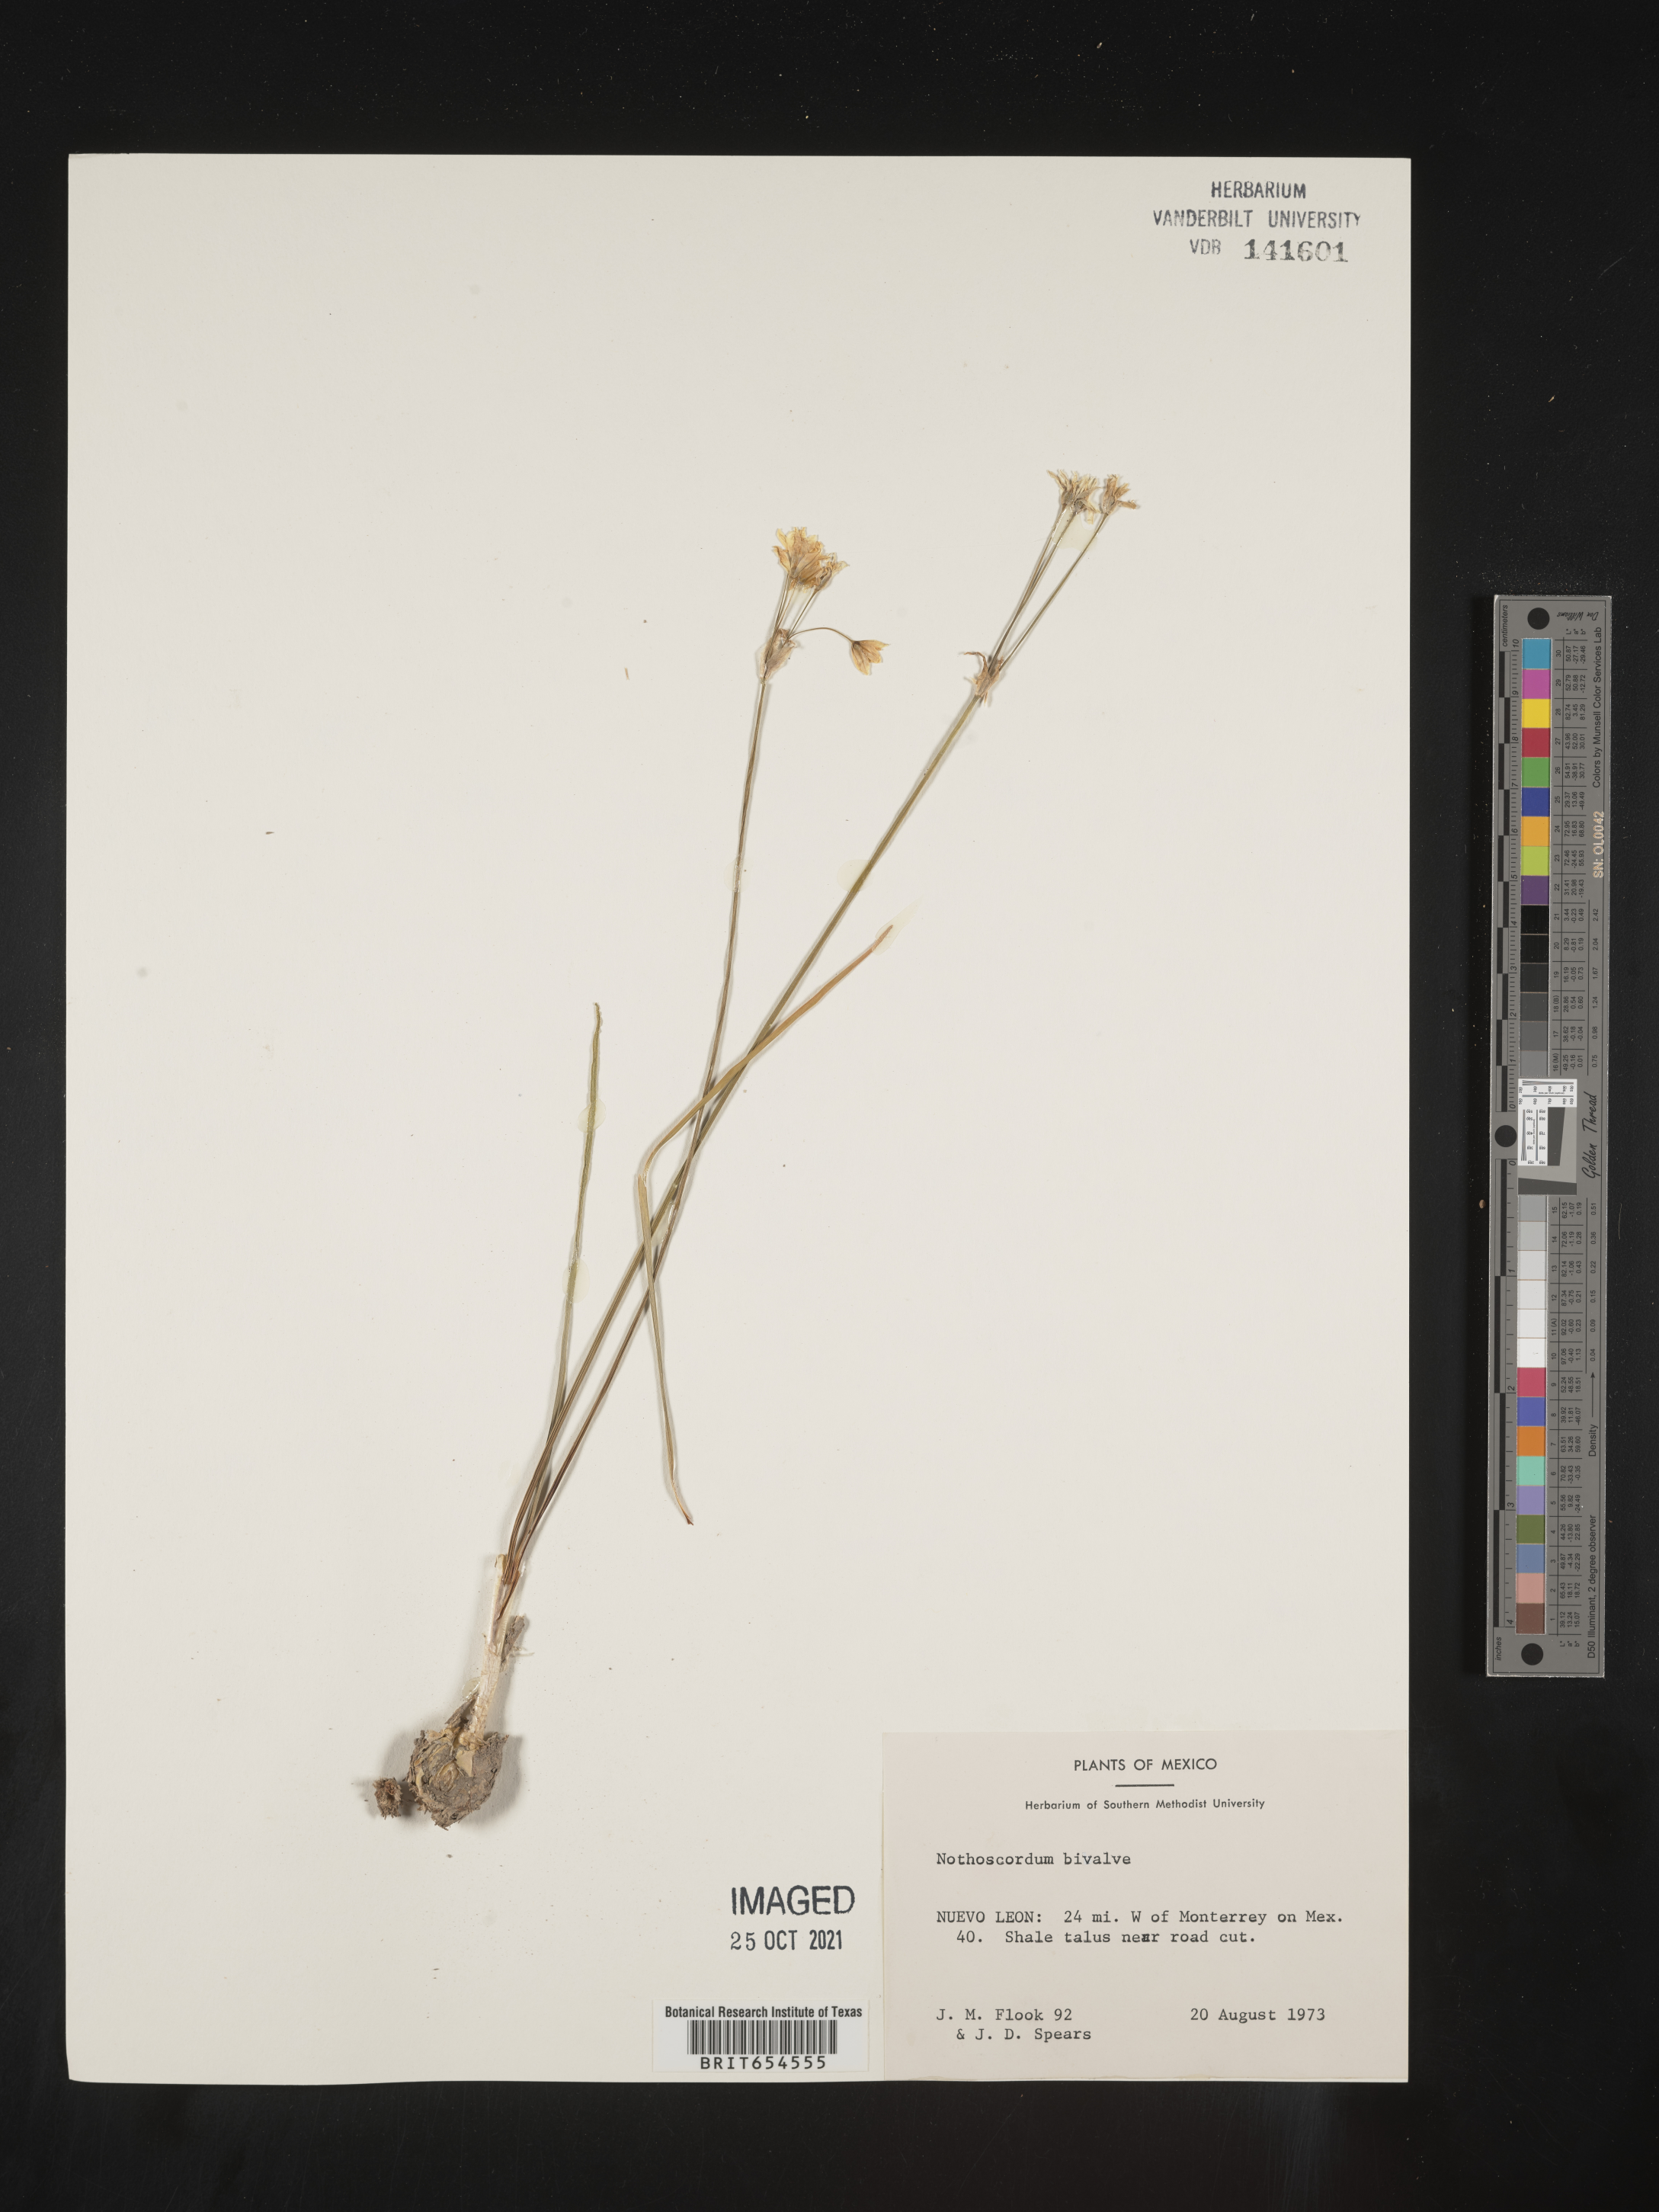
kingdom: Plantae
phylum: Tracheophyta
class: Liliopsida
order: Asparagales
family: Amaryllidaceae
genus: Nothoscordum
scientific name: Nothoscordum
